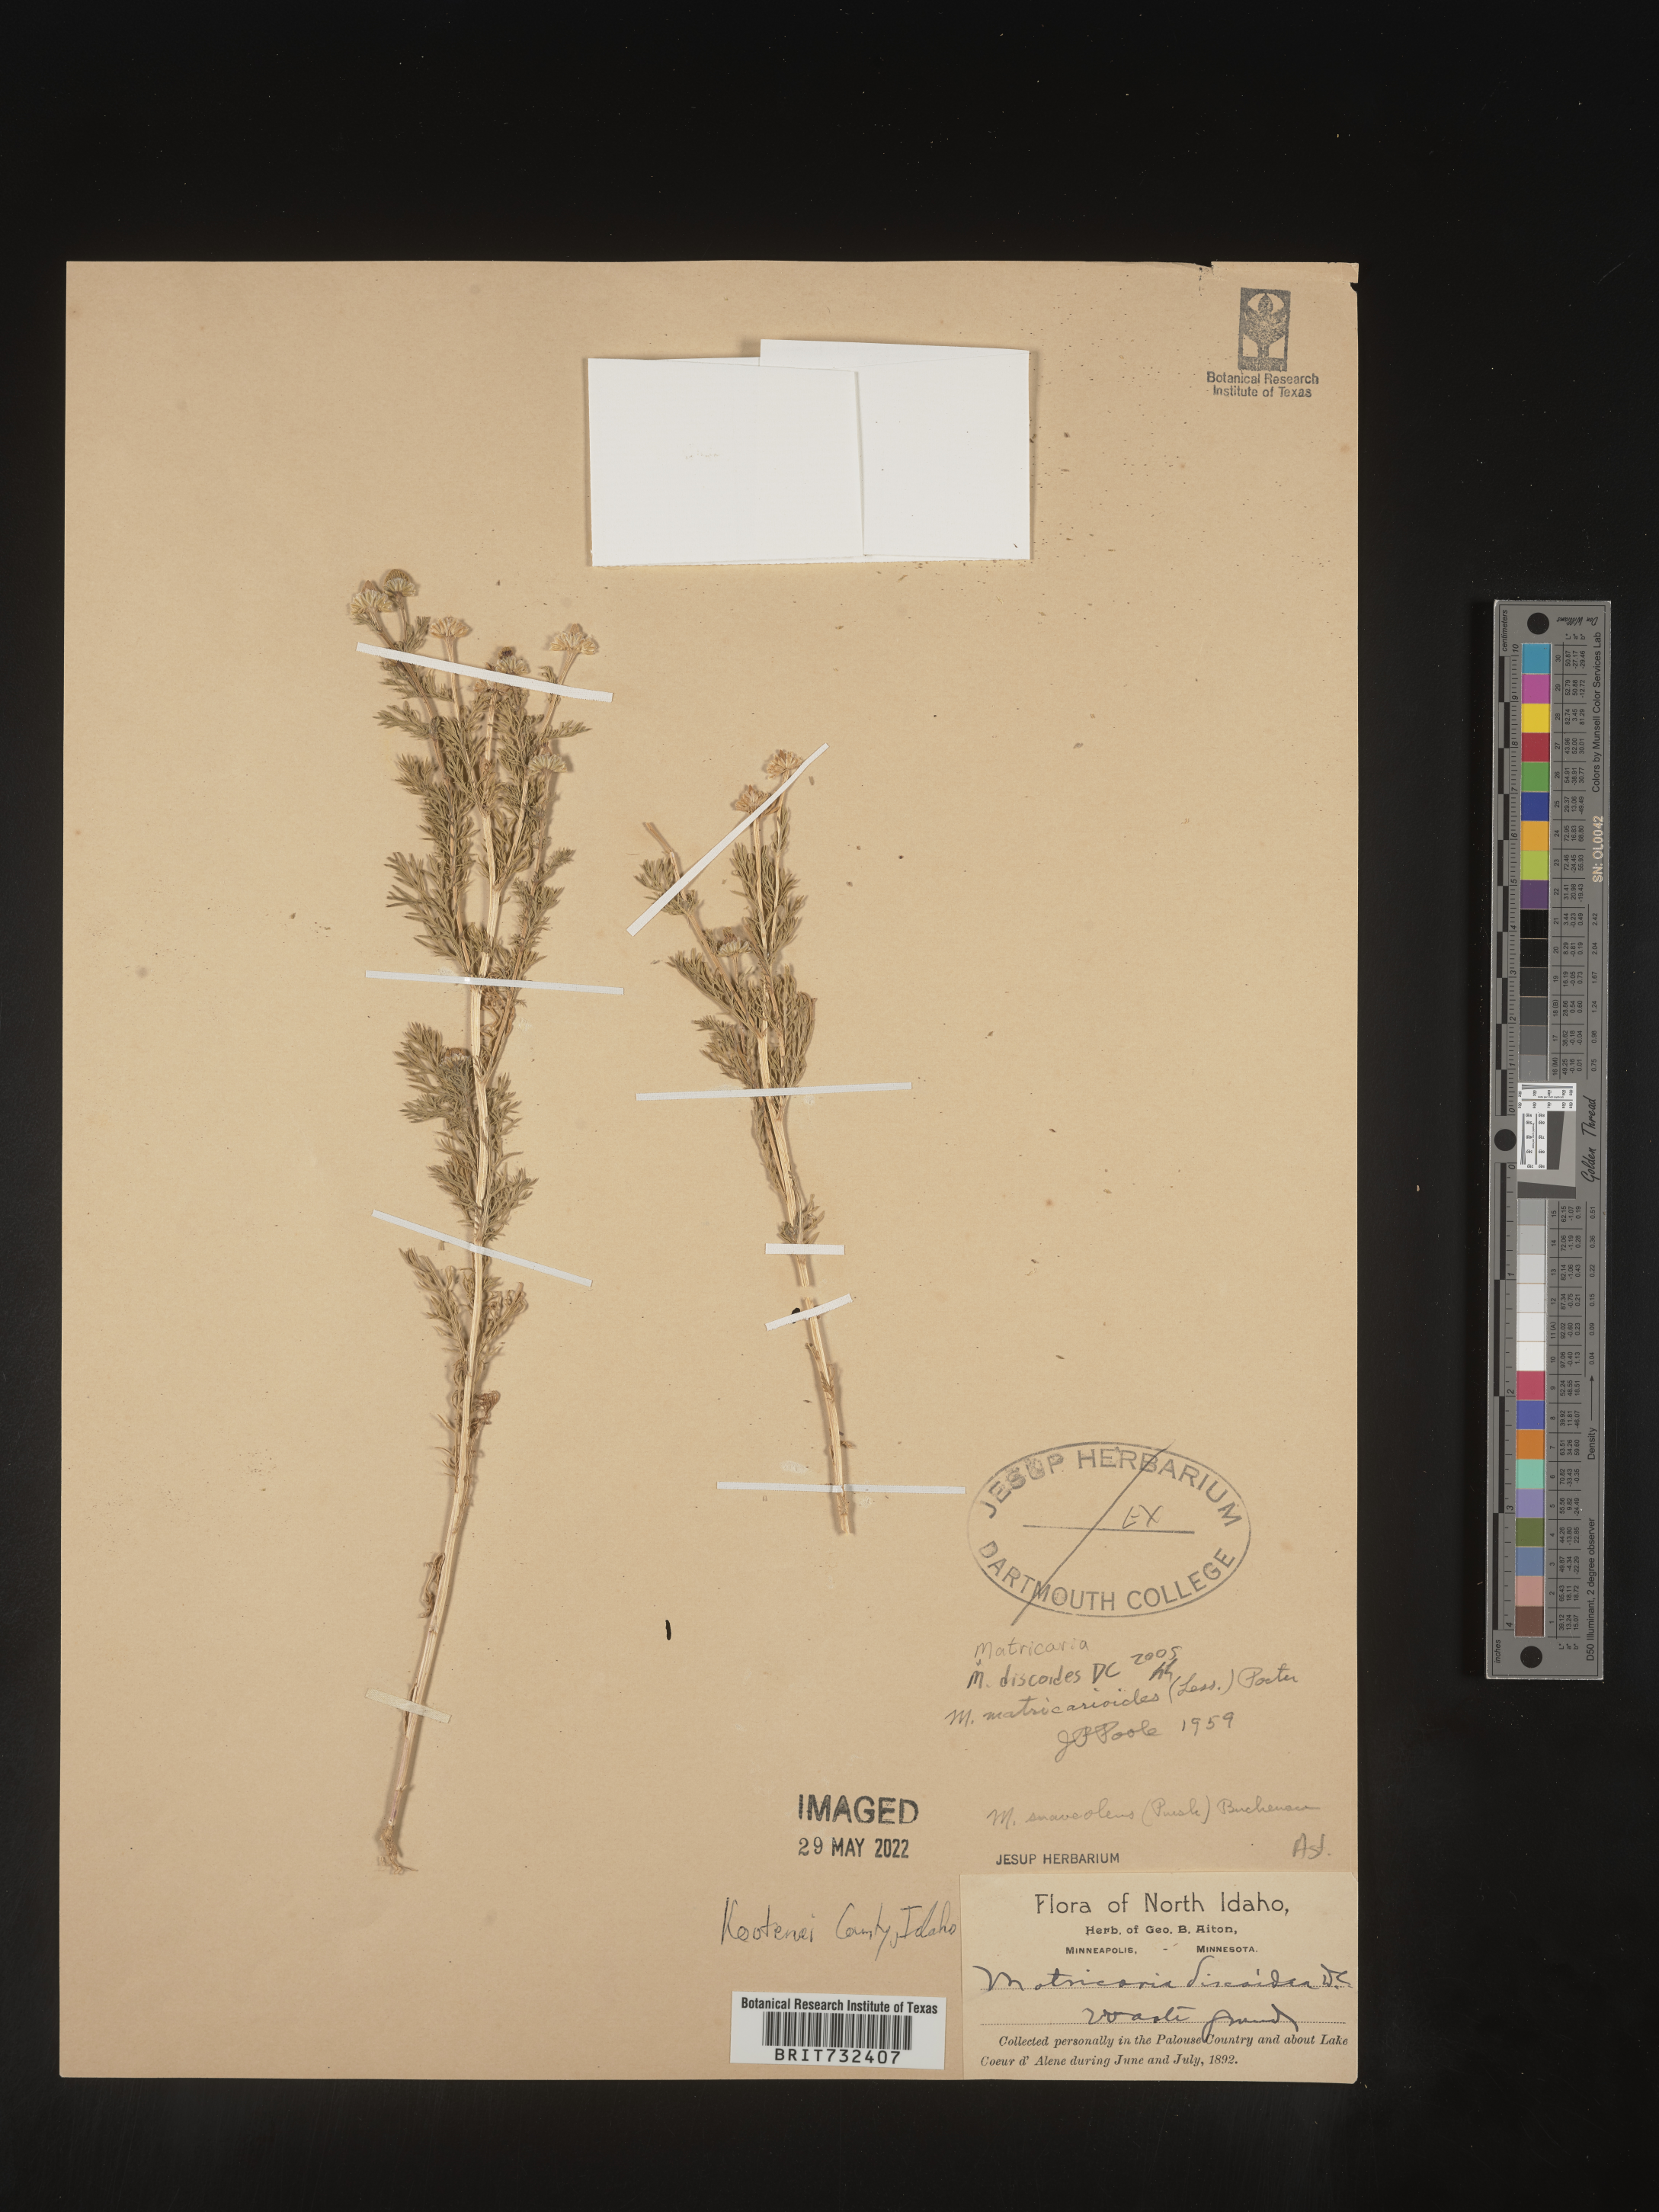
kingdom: Plantae
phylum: Tracheophyta
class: Magnoliopsida
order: Asterales
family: Asteraceae
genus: Matricaria
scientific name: Matricaria discoidea
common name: Disc mayweed
